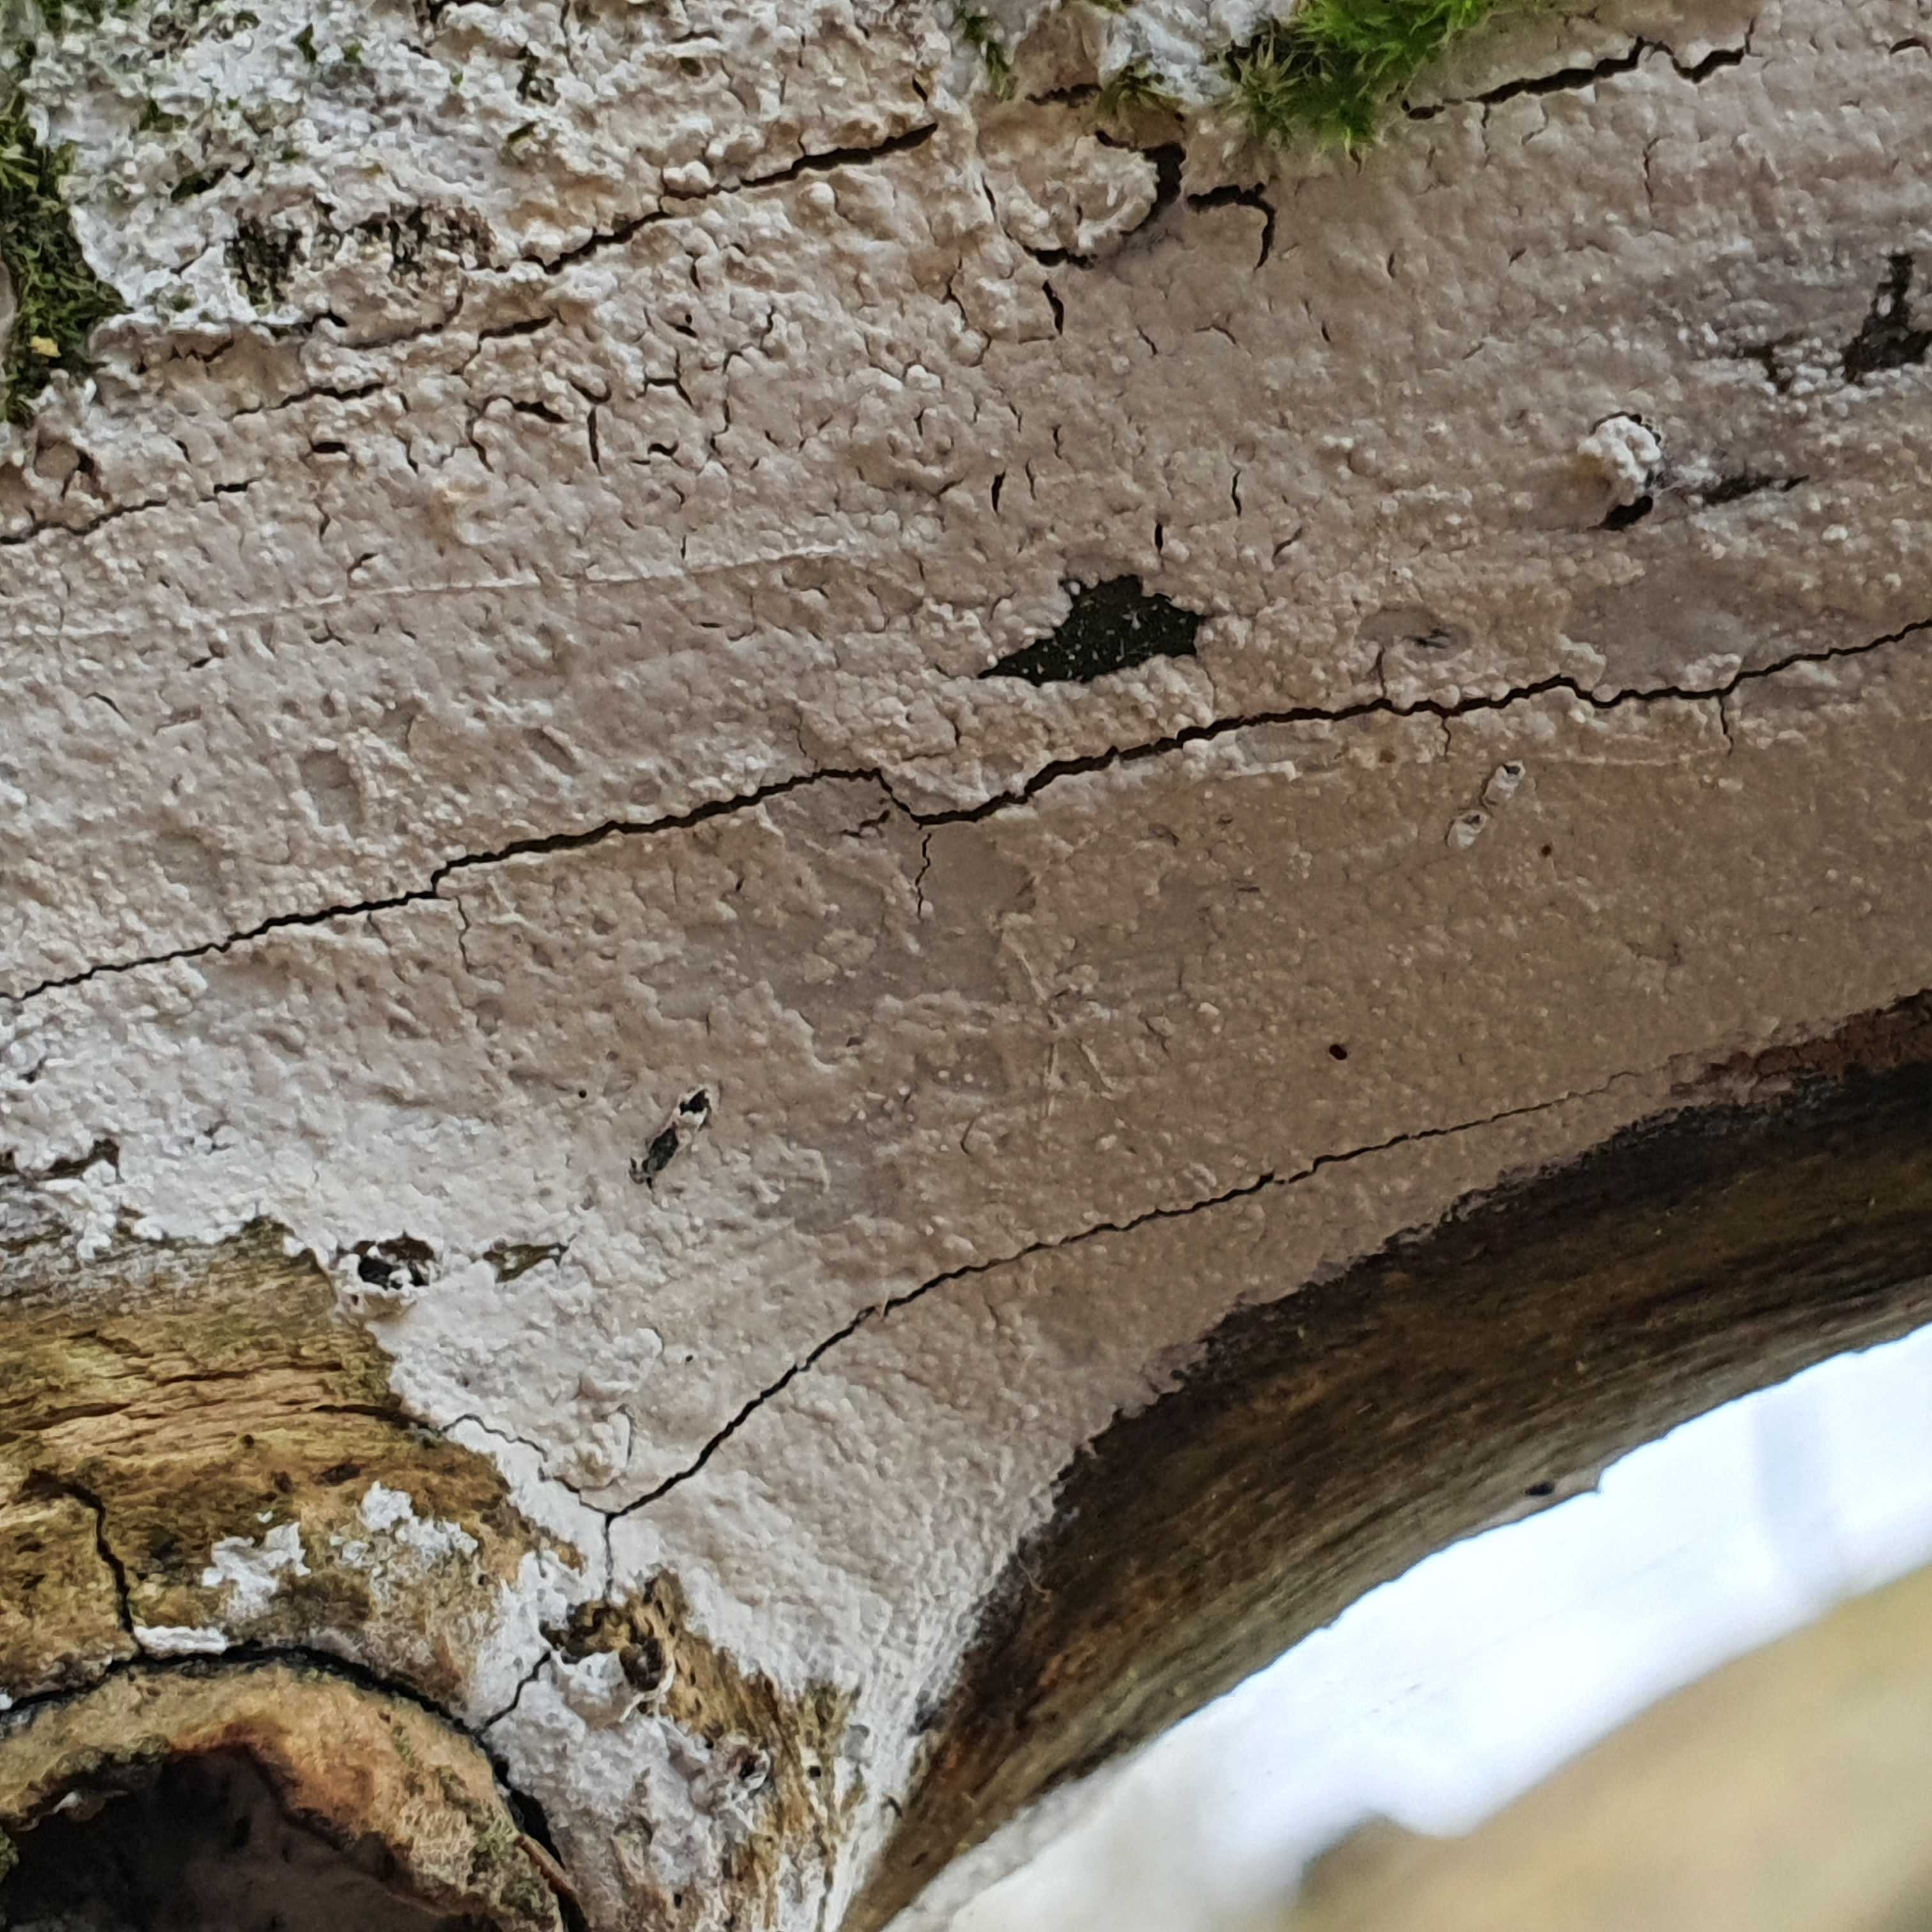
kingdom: Fungi
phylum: Basidiomycota
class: Agaricomycetes
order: Corticiales
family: Corticiaceae
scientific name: Corticiaceae
